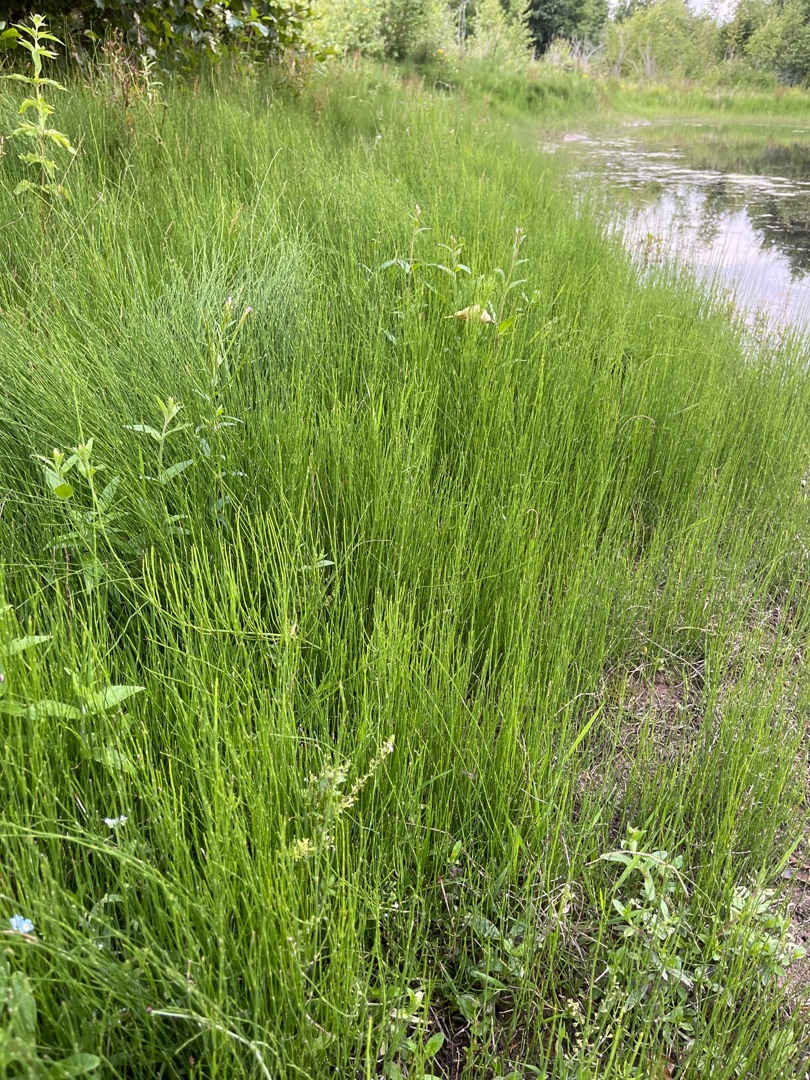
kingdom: Plantae
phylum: Tracheophyta
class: Polypodiopsida
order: Equisetales
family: Equisetaceae
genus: Equisetum
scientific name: Equisetum palustre
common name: Kær-padderok
